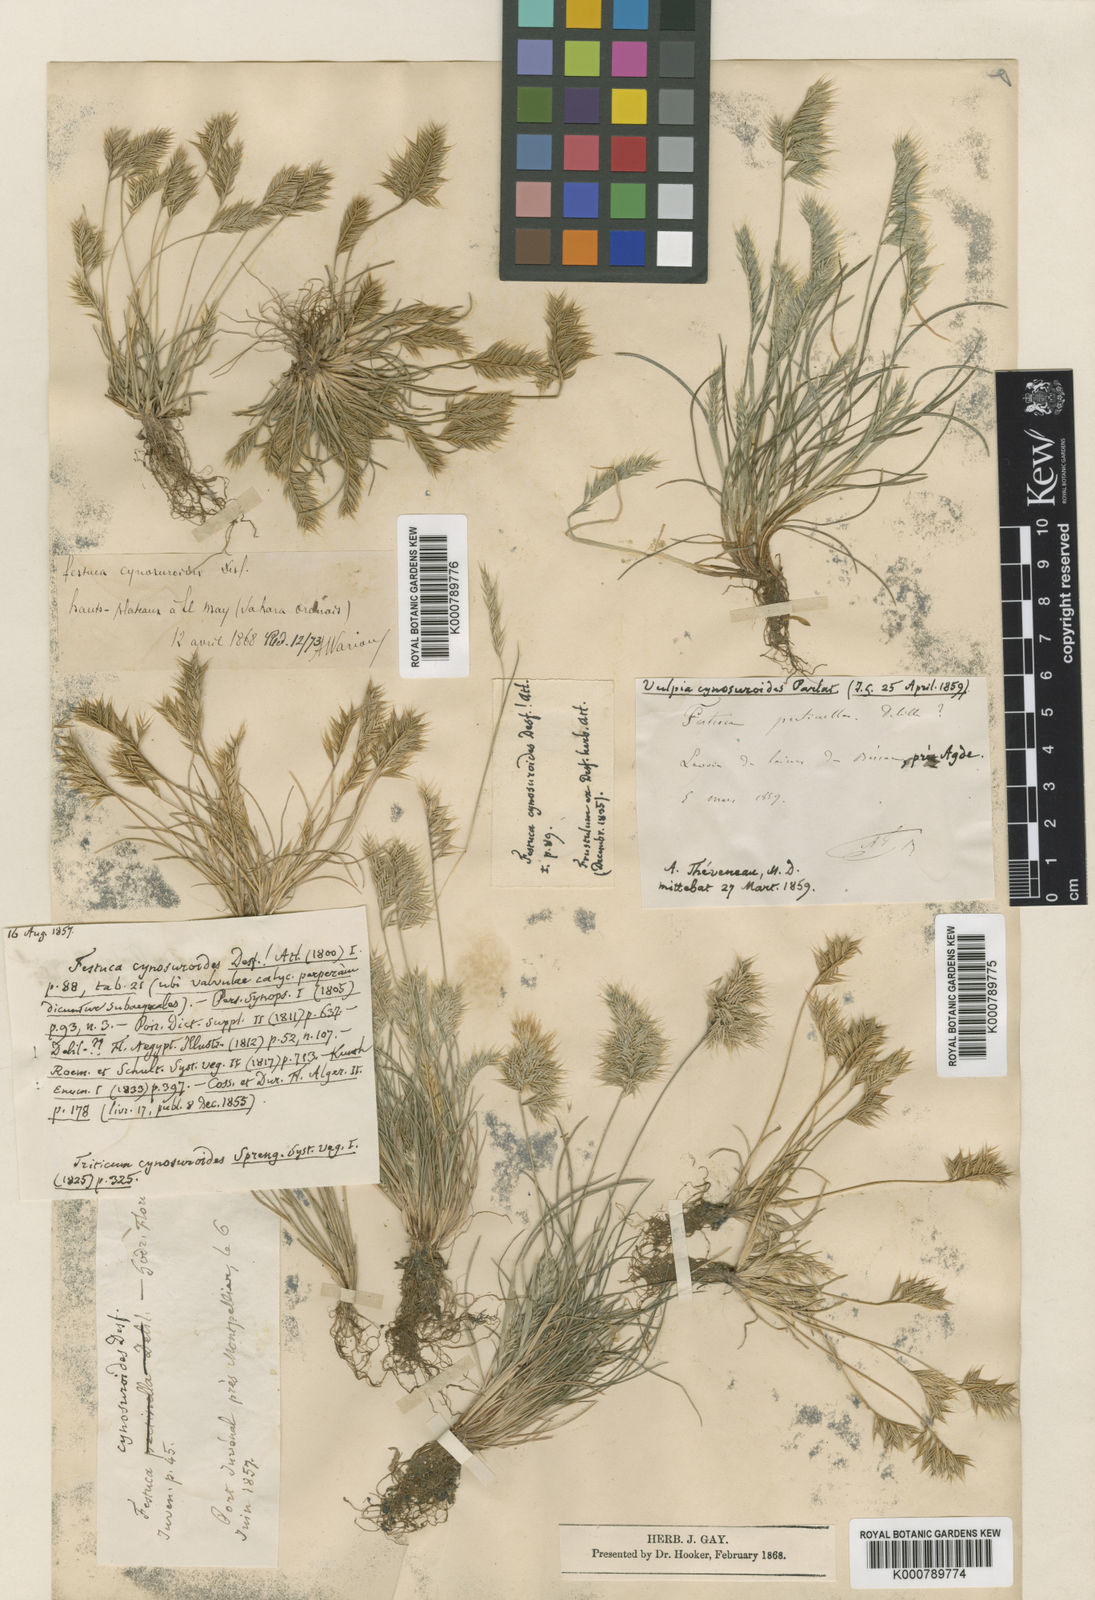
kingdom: Plantae
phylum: Tracheophyta
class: Liliopsida
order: Poales
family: Poaceae
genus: Festuca
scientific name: Festuca gypsophila
